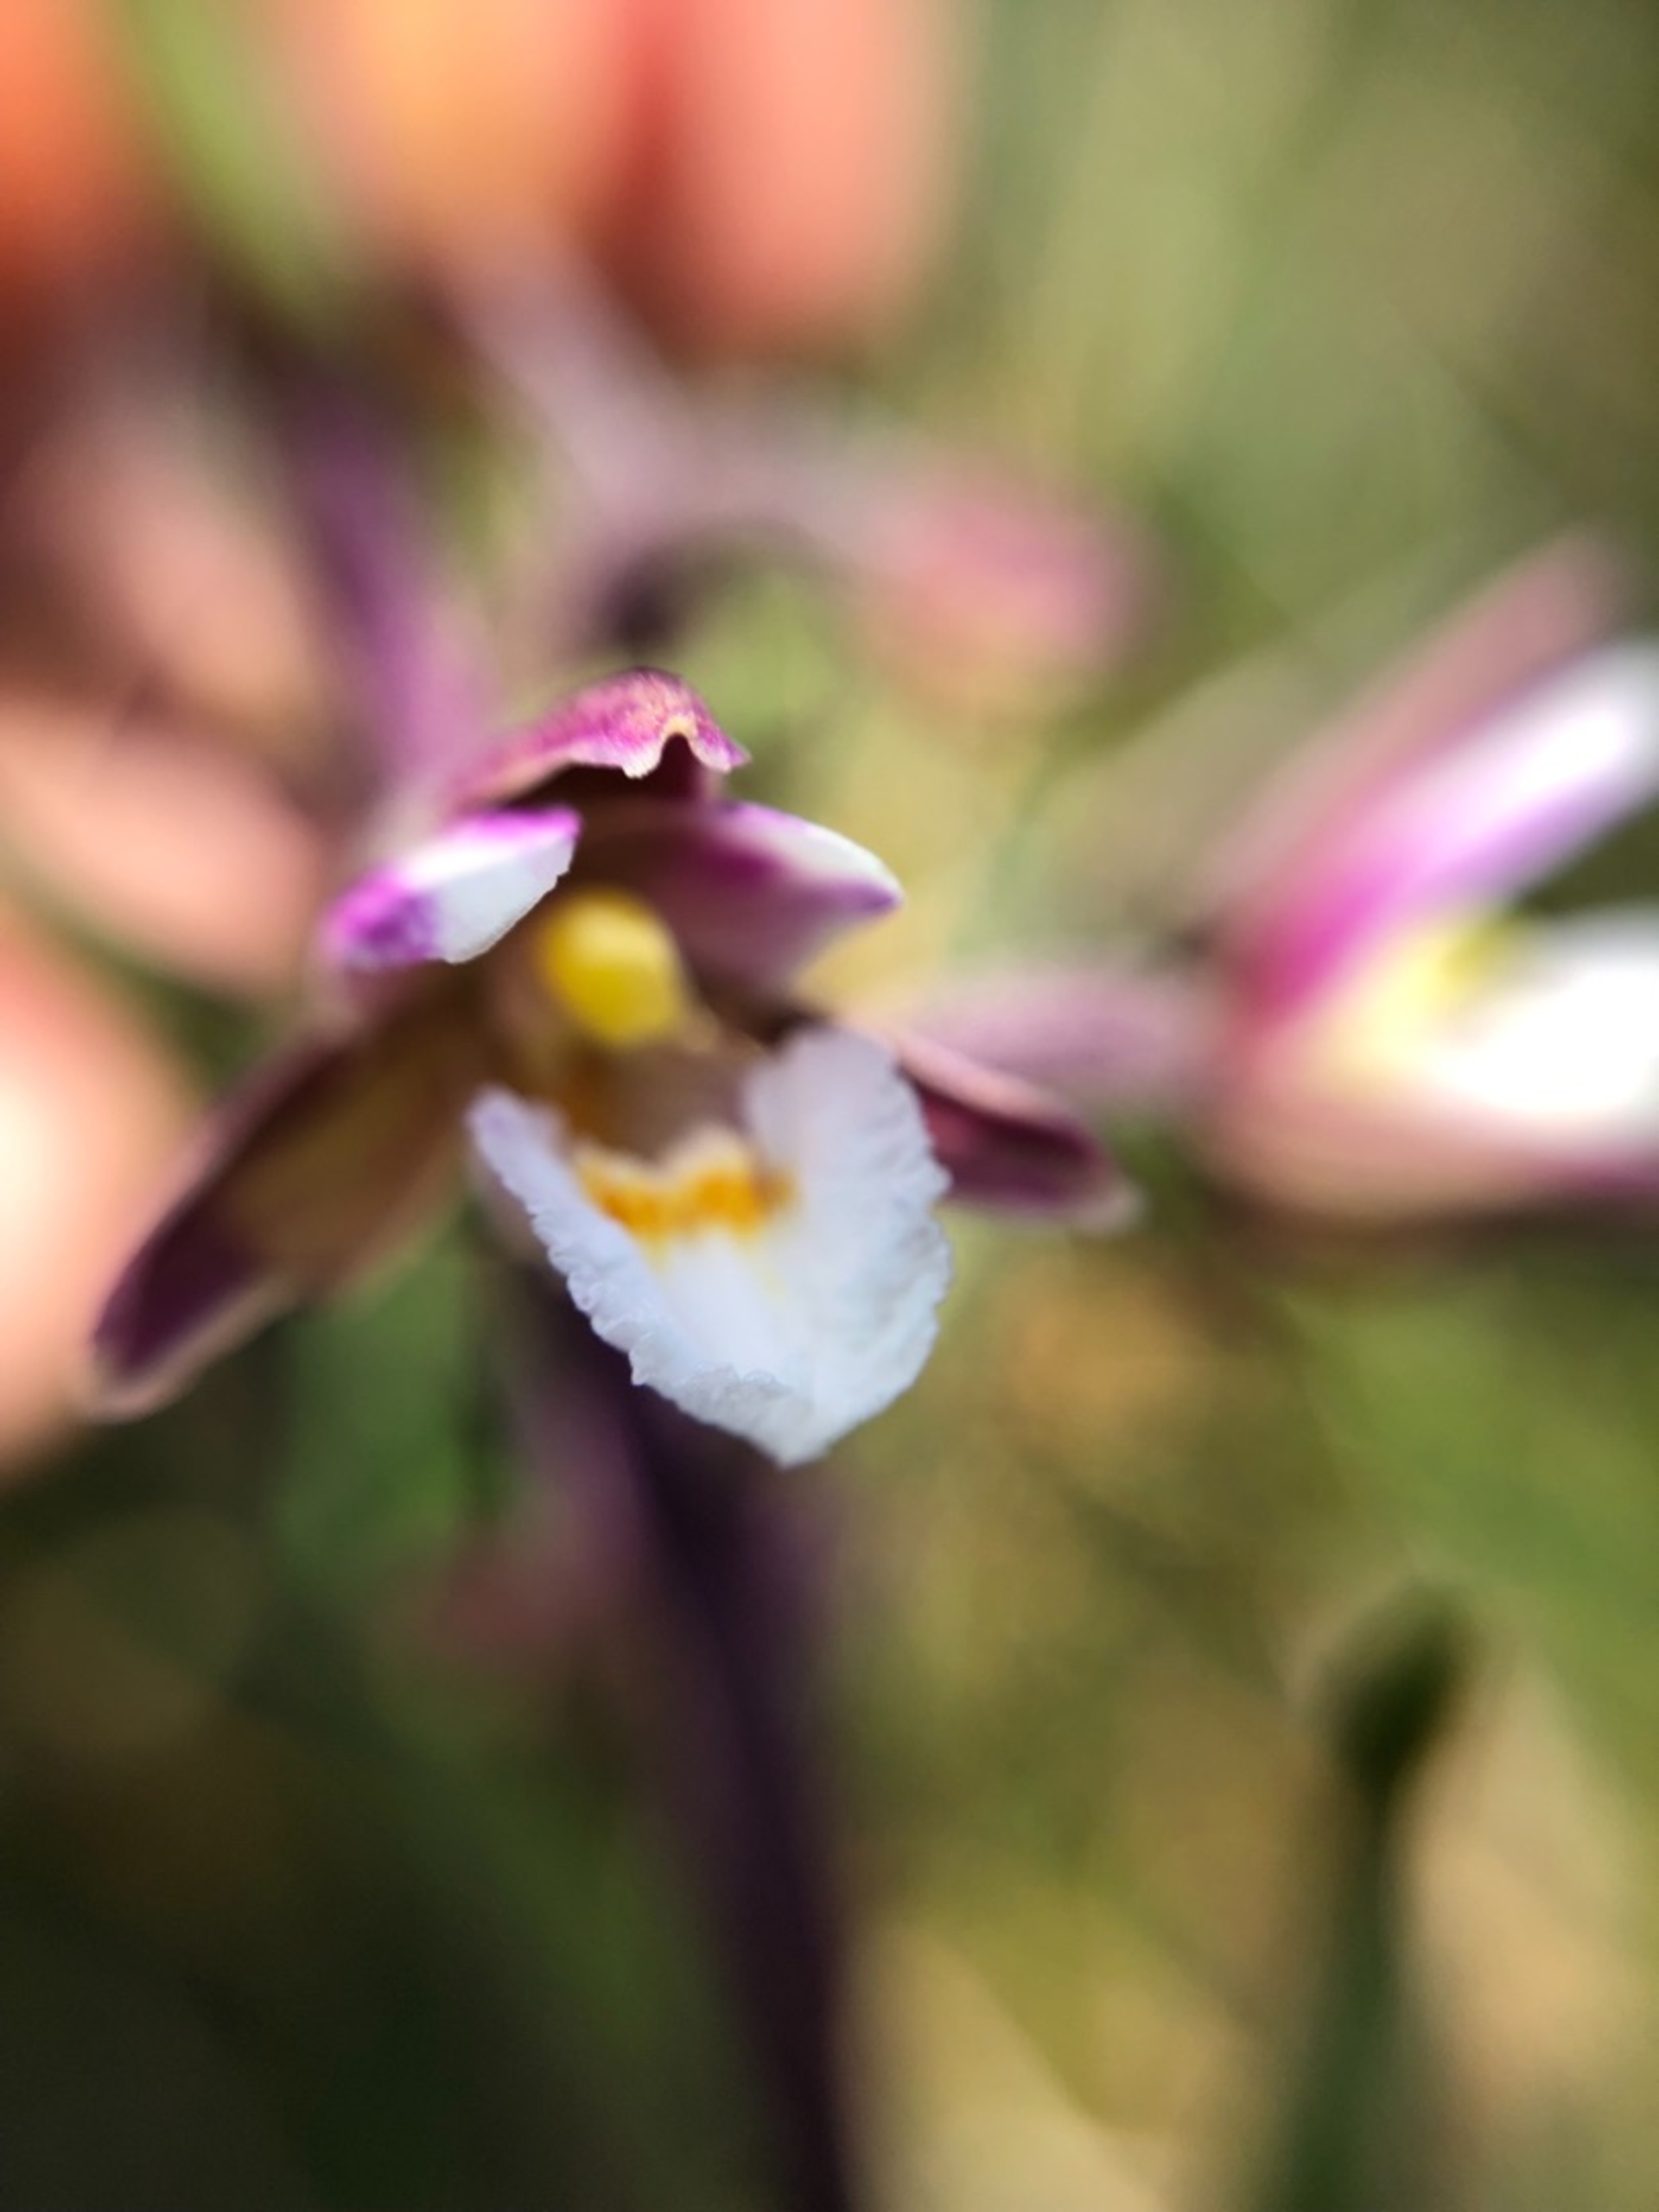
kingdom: Plantae
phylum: Tracheophyta
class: Liliopsida
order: Asparagales
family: Orchidaceae
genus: Epipactis
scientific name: Epipactis palustris
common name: Sump-hullæbe
